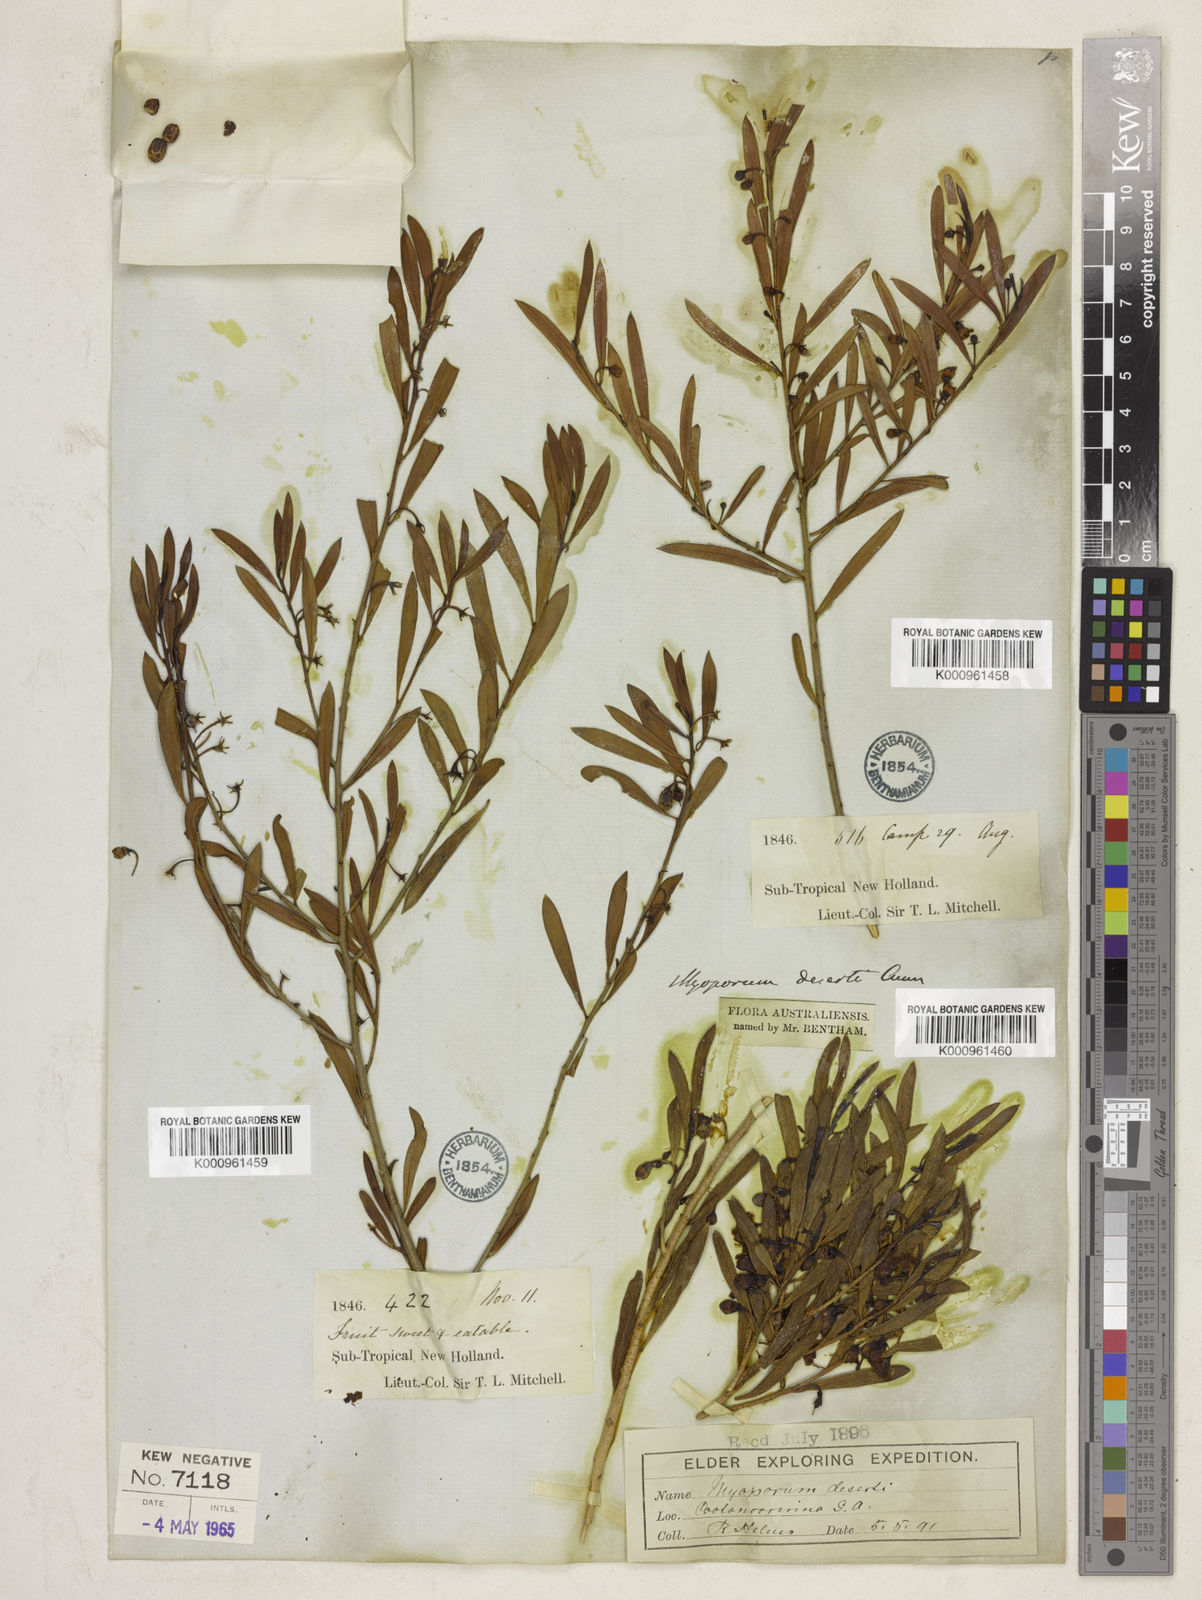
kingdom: Plantae
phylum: Tracheophyta
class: Magnoliopsida
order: Lamiales
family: Scrophulariaceae
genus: Eremophila
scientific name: Eremophila deserti
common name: Ellangowan-poisonbush
